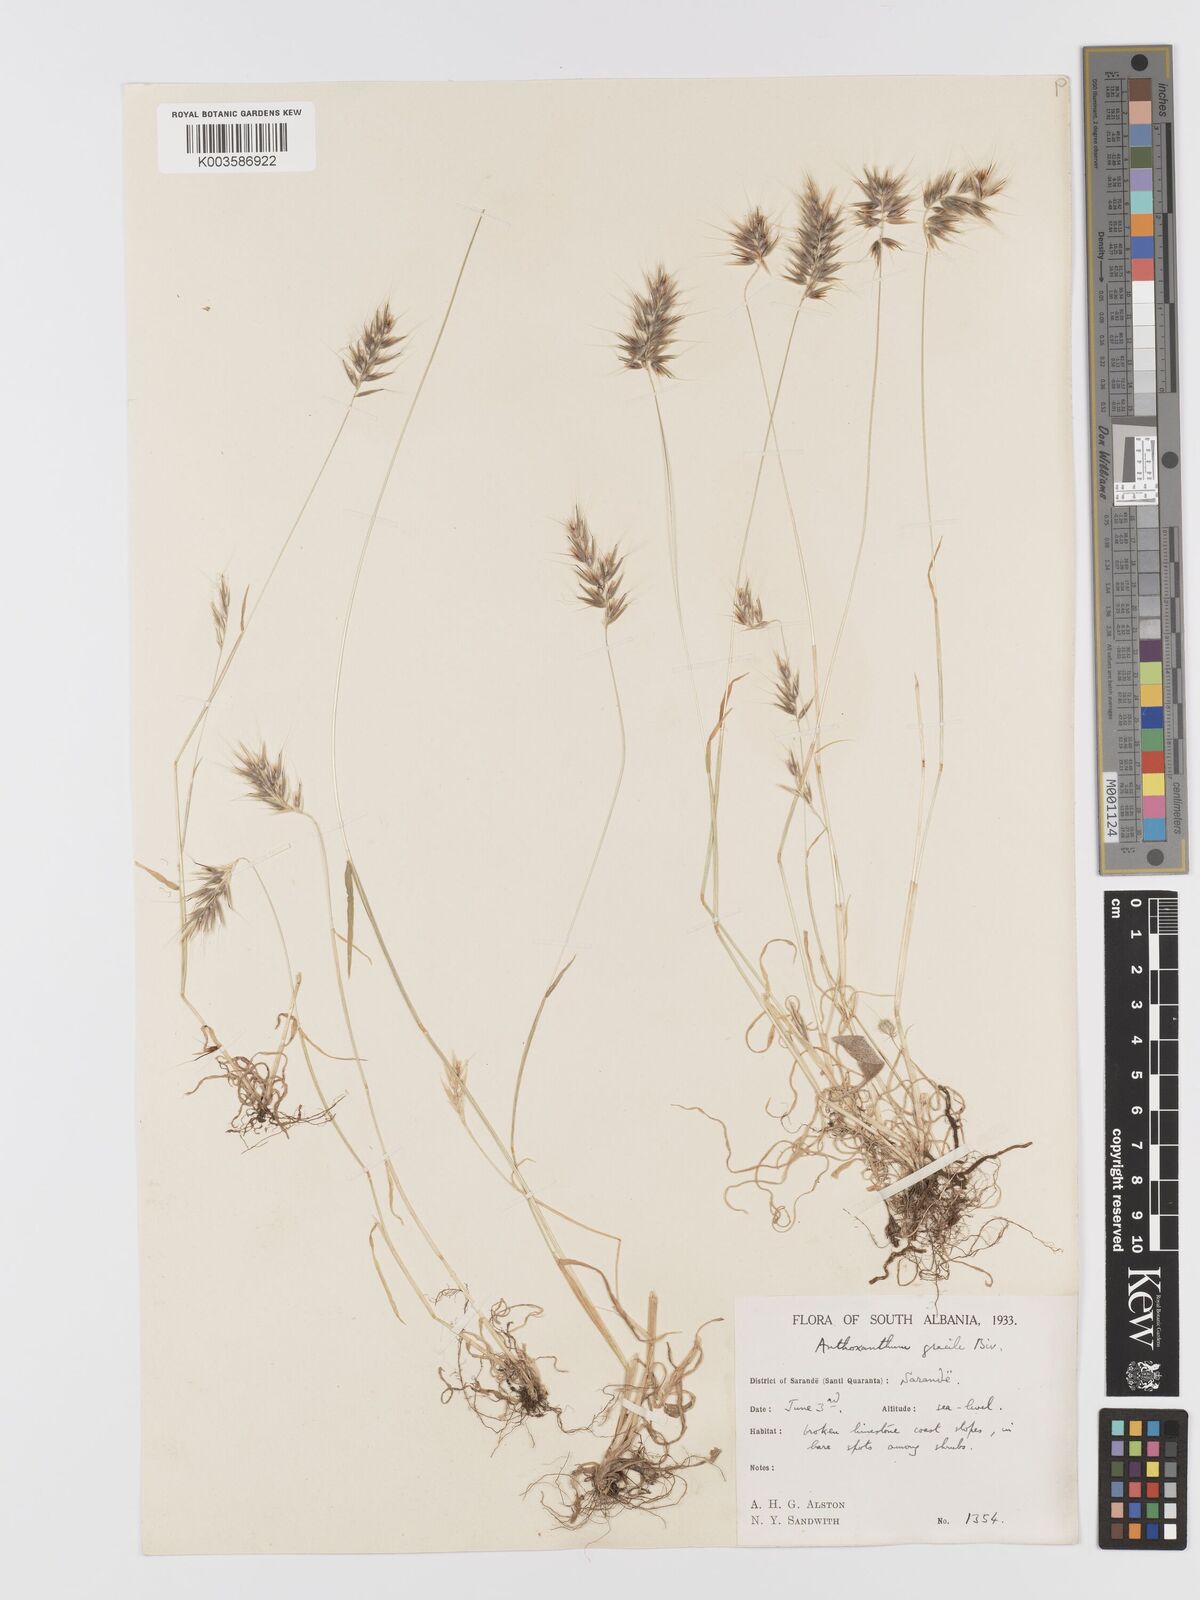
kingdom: Plantae
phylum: Tracheophyta
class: Liliopsida
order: Poales
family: Poaceae
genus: Anthoxanthum
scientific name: Anthoxanthum gracile
